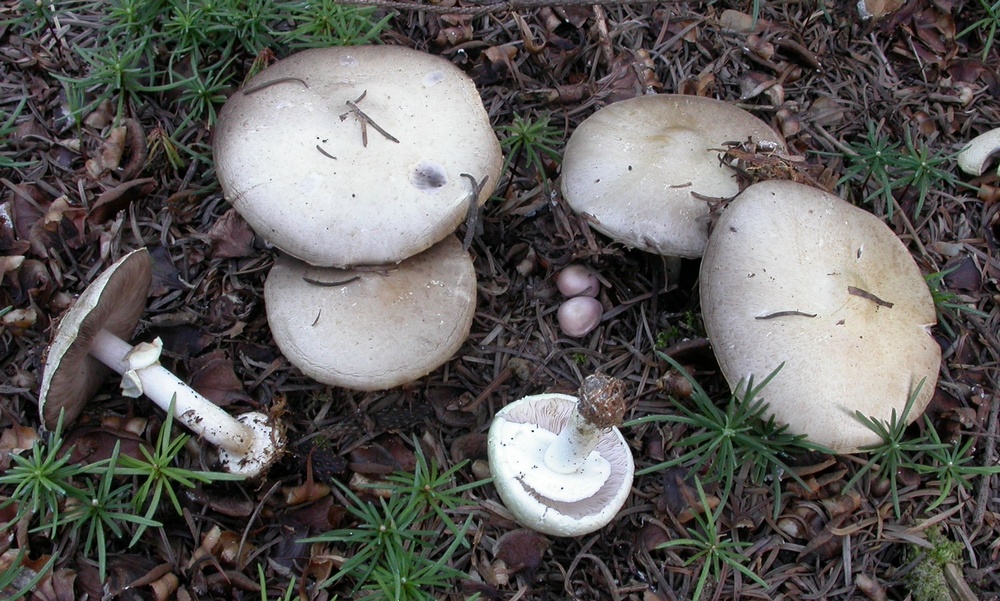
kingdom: Fungi
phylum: Basidiomycota
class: Agaricomycetes
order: Agaricales
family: Agaricaceae
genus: Agaricus
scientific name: Agaricus sylvicola
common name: skiveknoldet champignon
